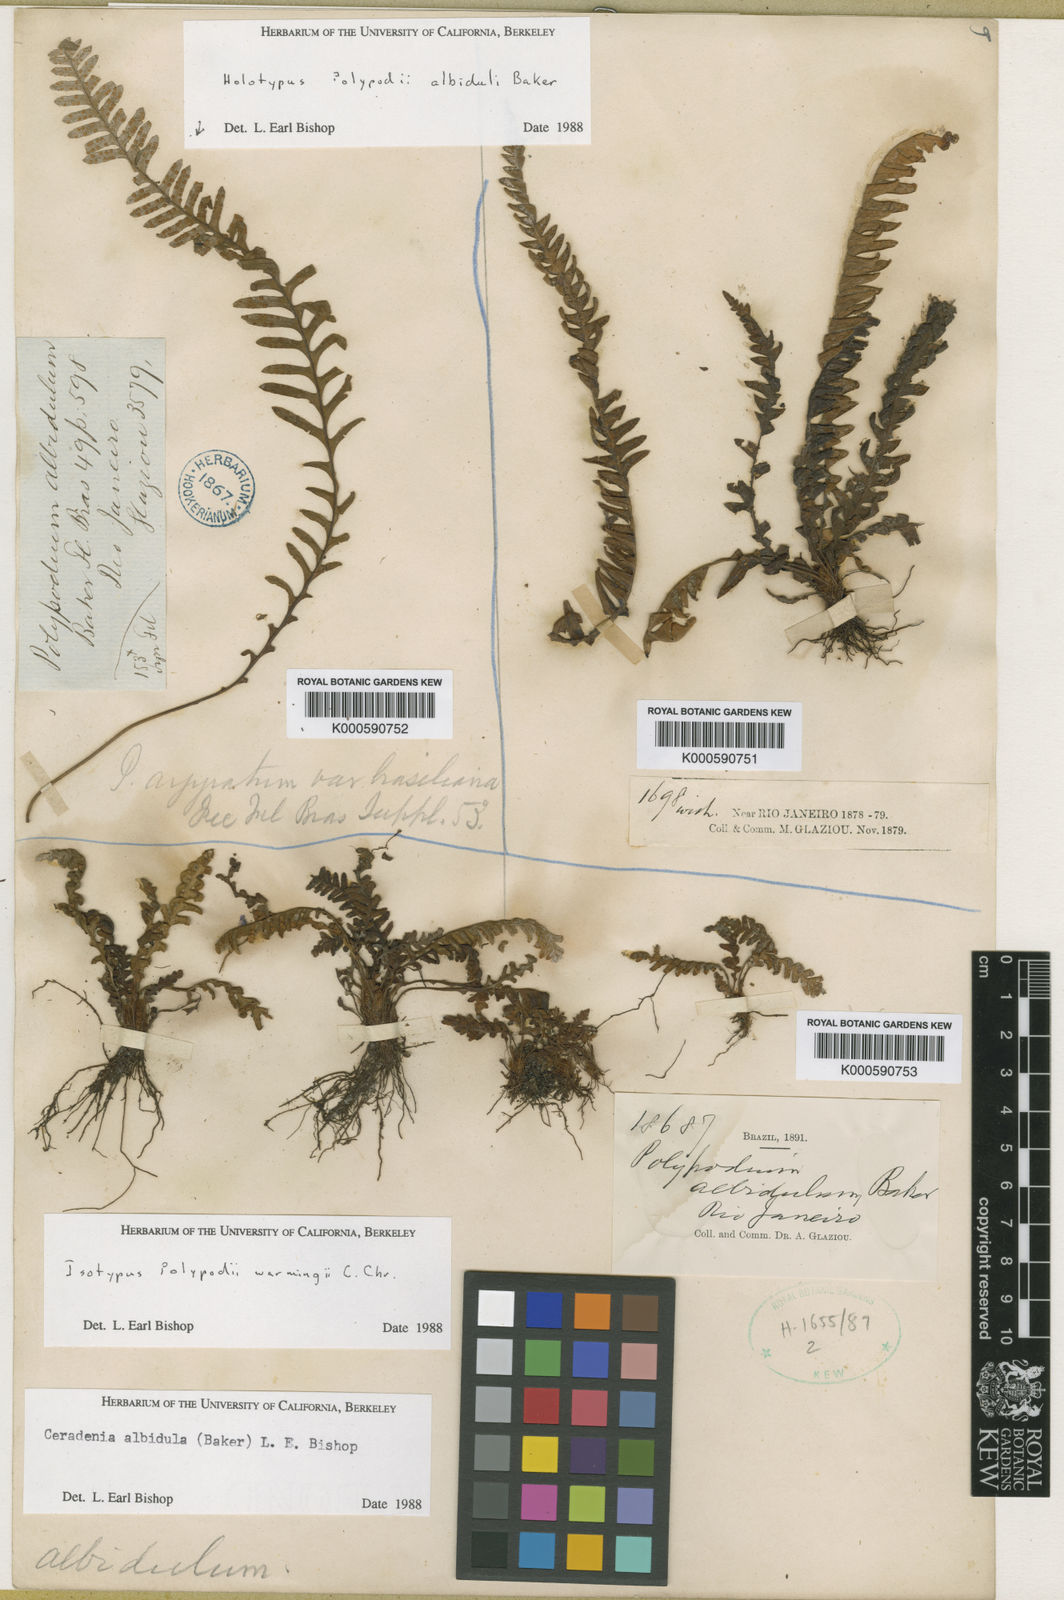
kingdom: Plantae
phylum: Tracheophyta
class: Polypodiopsida
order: Polypodiales
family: Polypodiaceae
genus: Ceradenia
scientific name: Ceradenia albidula
